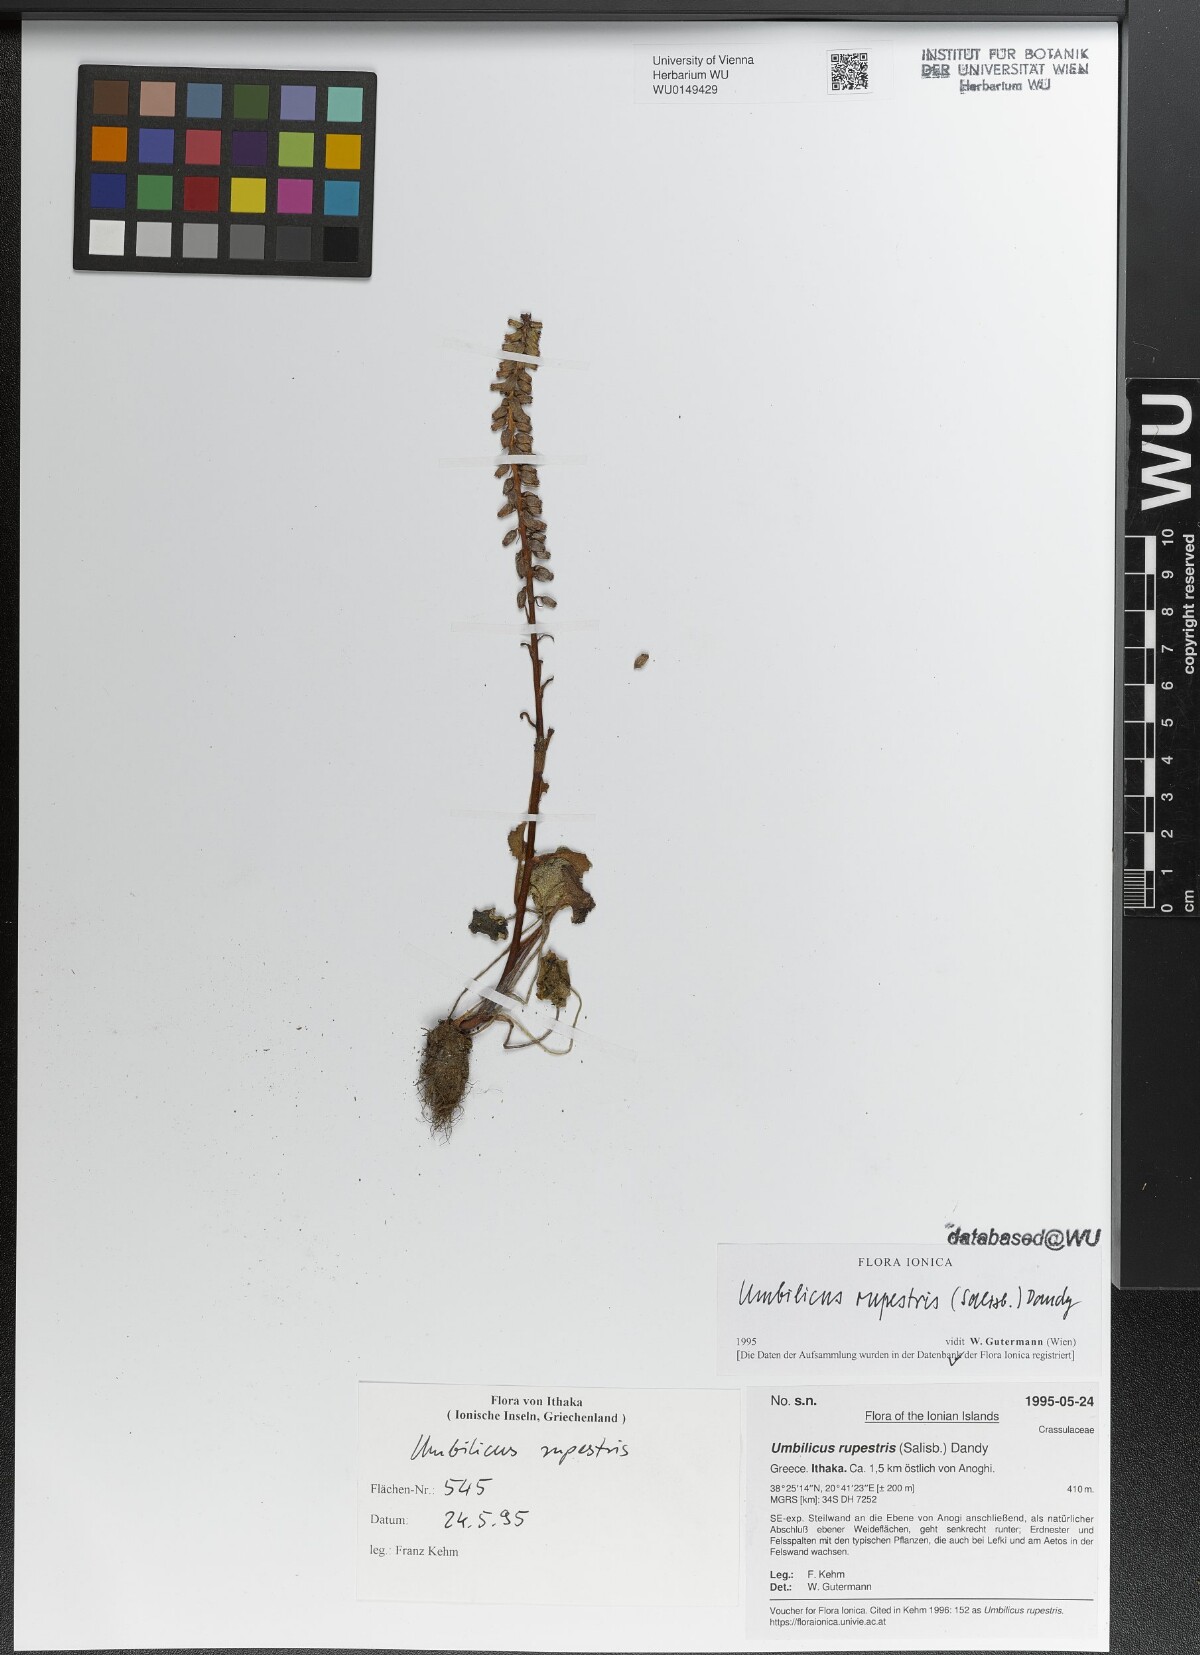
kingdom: Plantae
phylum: Tracheophyta
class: Magnoliopsida
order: Saxifragales
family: Crassulaceae
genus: Umbilicus
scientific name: Umbilicus rupestris
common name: Navelwort
